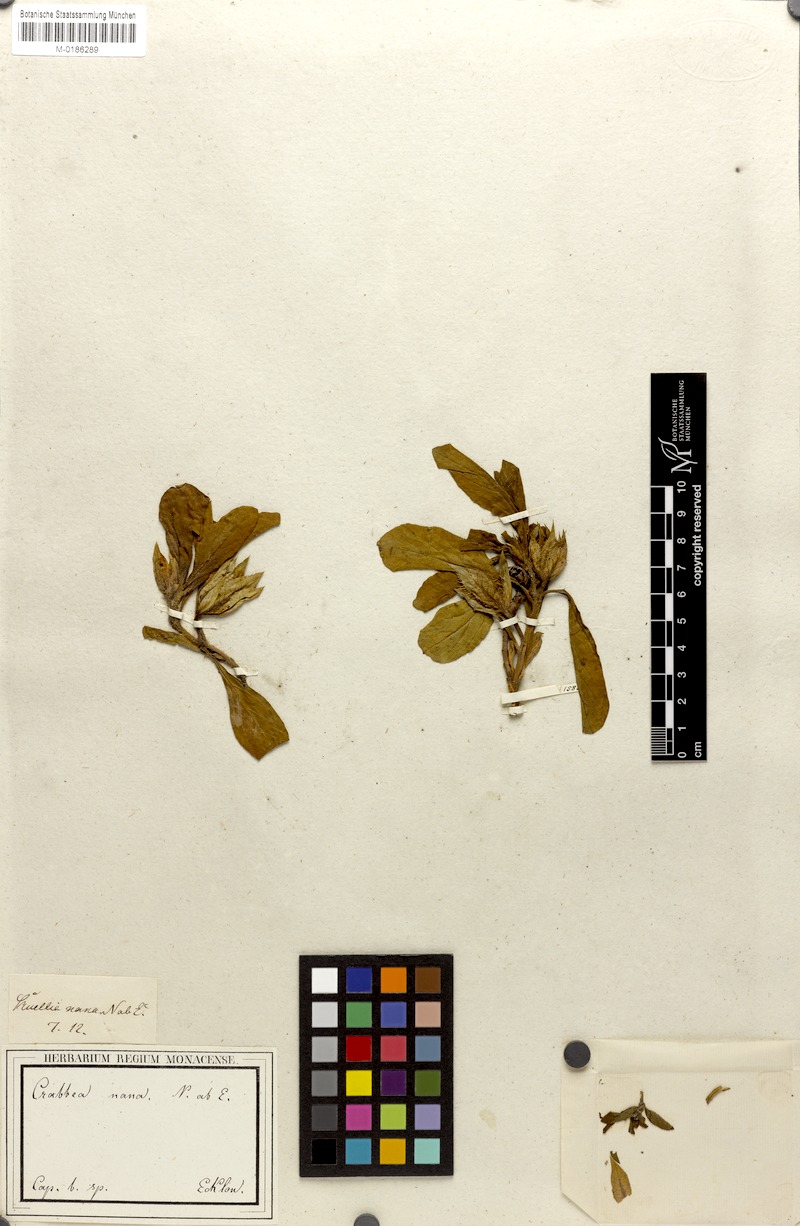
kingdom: Plantae
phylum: Tracheophyta
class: Magnoliopsida
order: Lamiales
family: Acanthaceae
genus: Crabbea
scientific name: Crabbea nana
